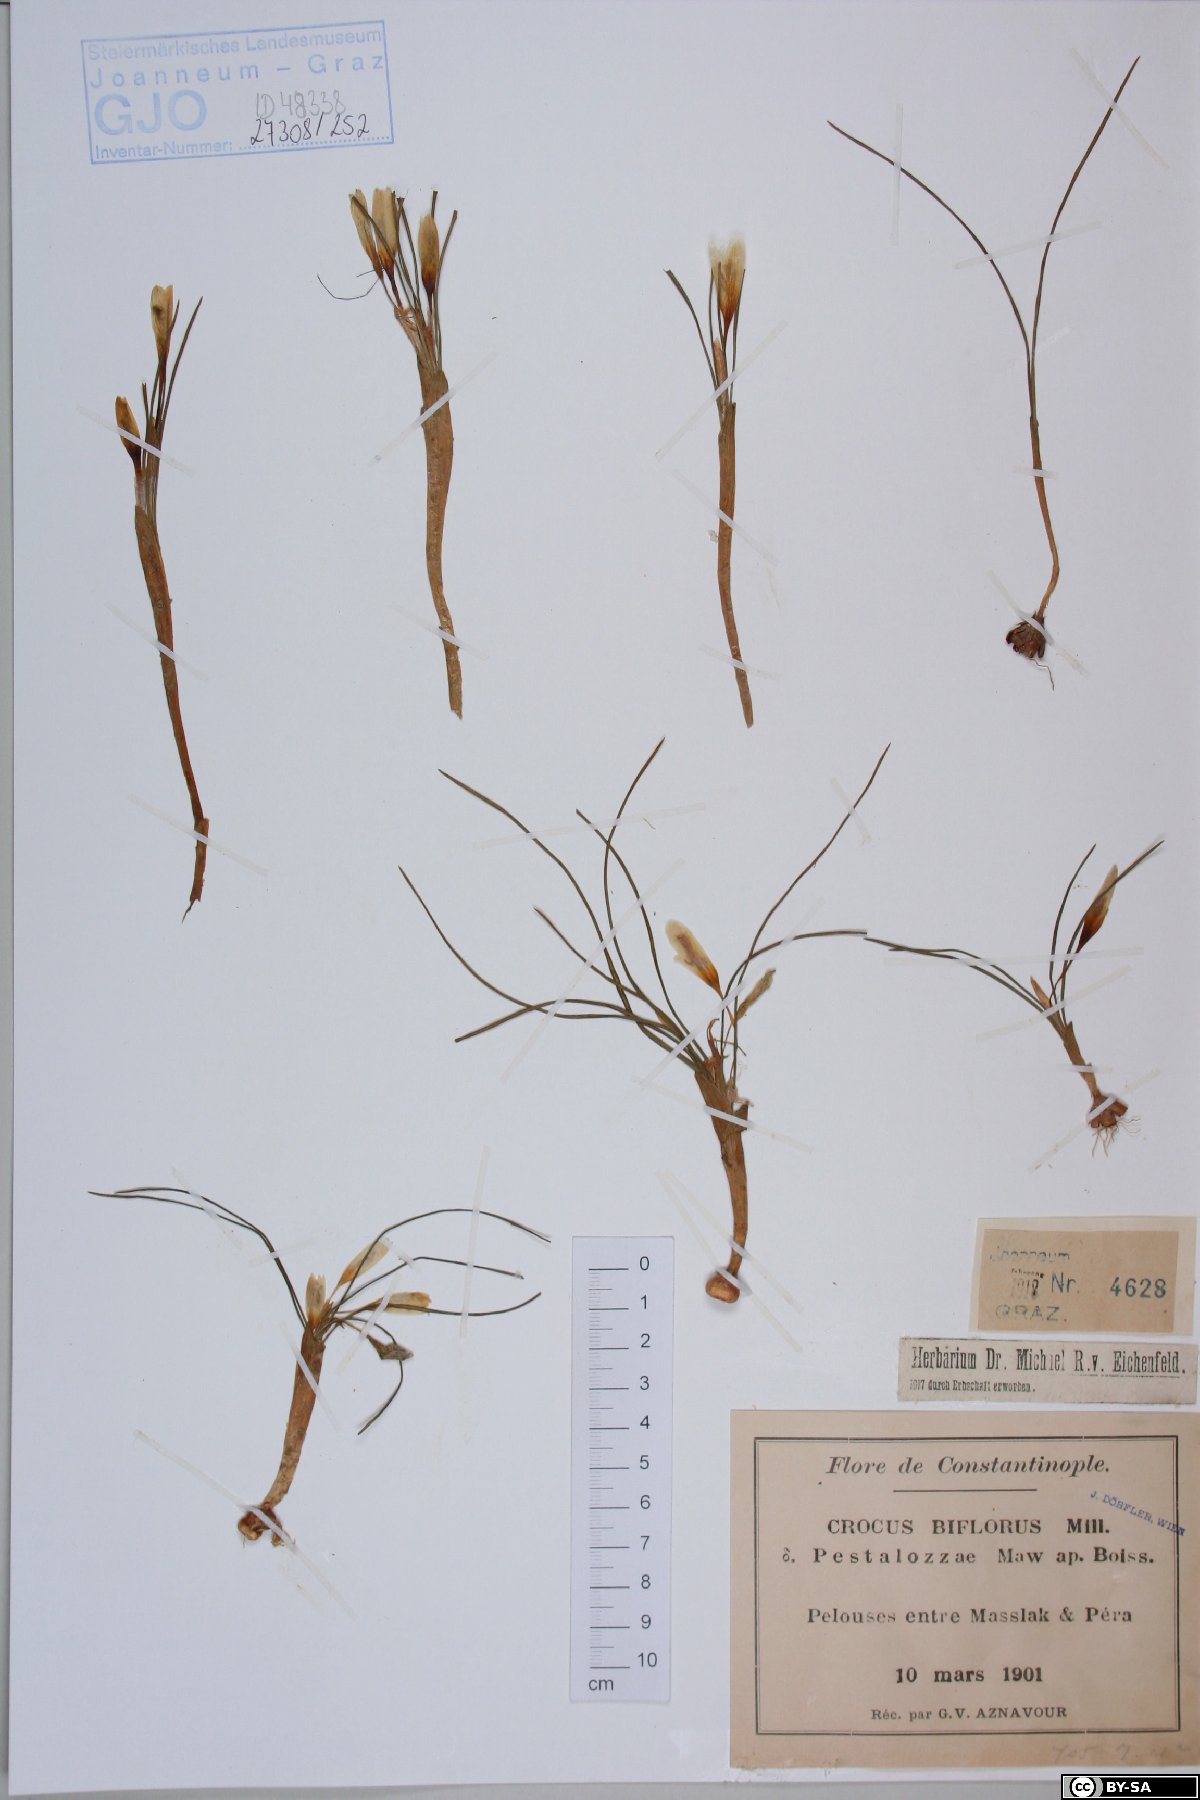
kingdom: Plantae
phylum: Tracheophyta
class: Liliopsida
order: Asparagales
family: Iridaceae
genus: Crocus
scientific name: Crocus biflorus
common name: Silvery crocus
